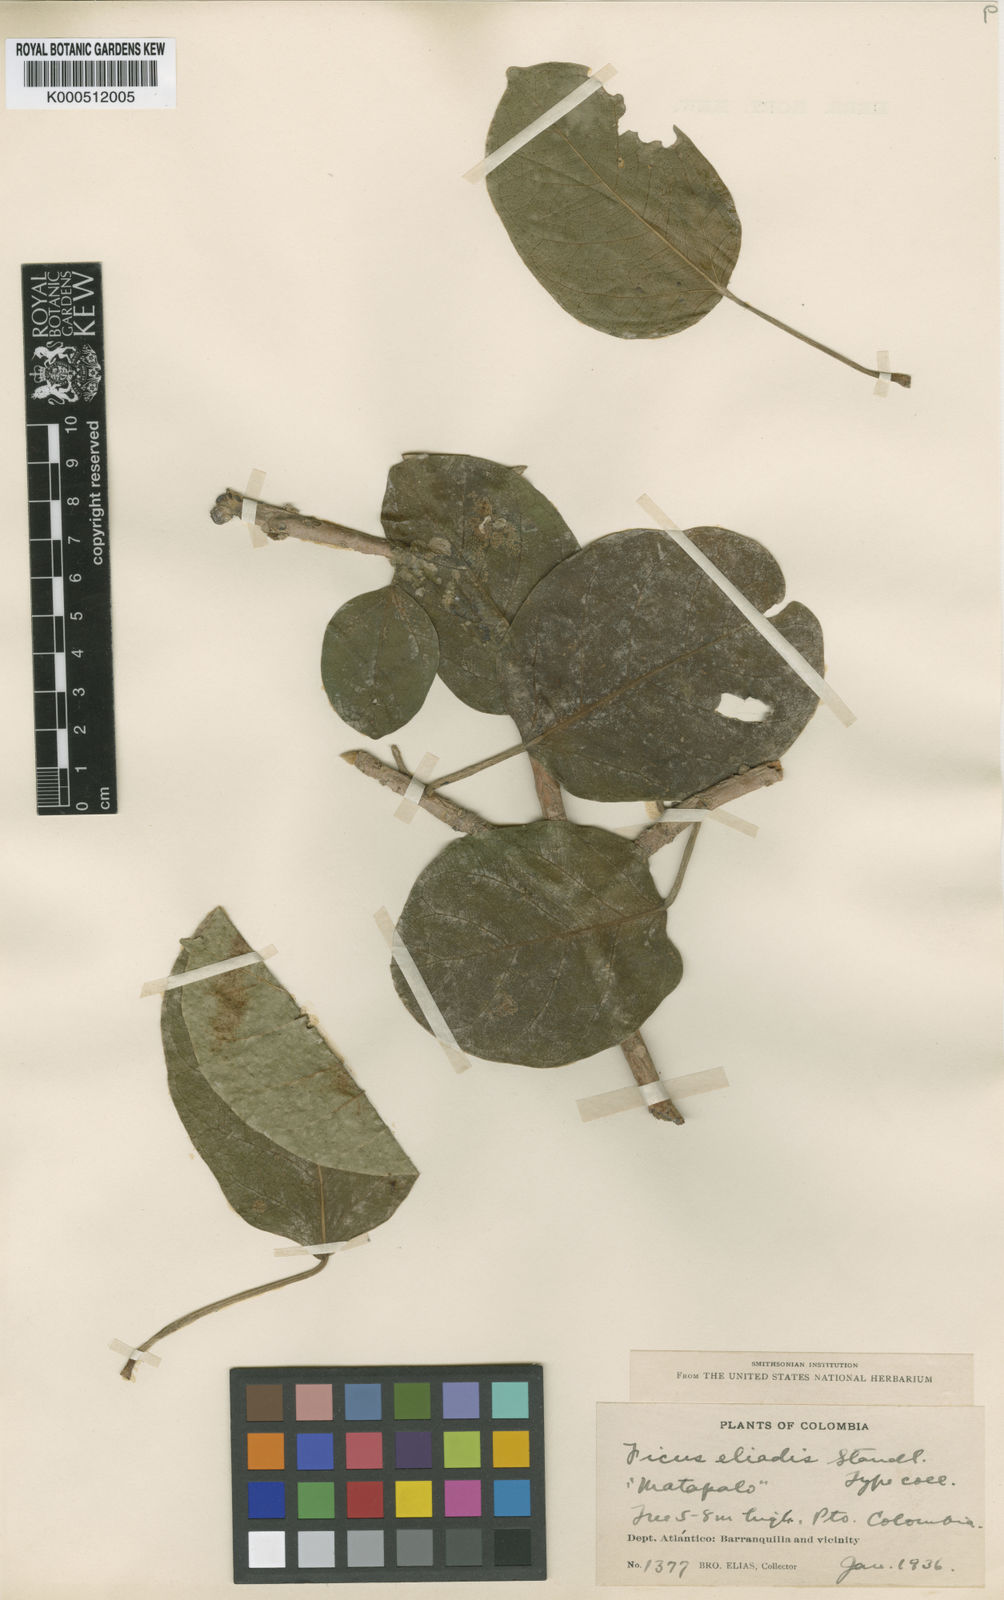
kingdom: Plantae
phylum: Tracheophyta
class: Magnoliopsida
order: Rosales
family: Moraceae
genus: Ficus
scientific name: Ficus eliadis
